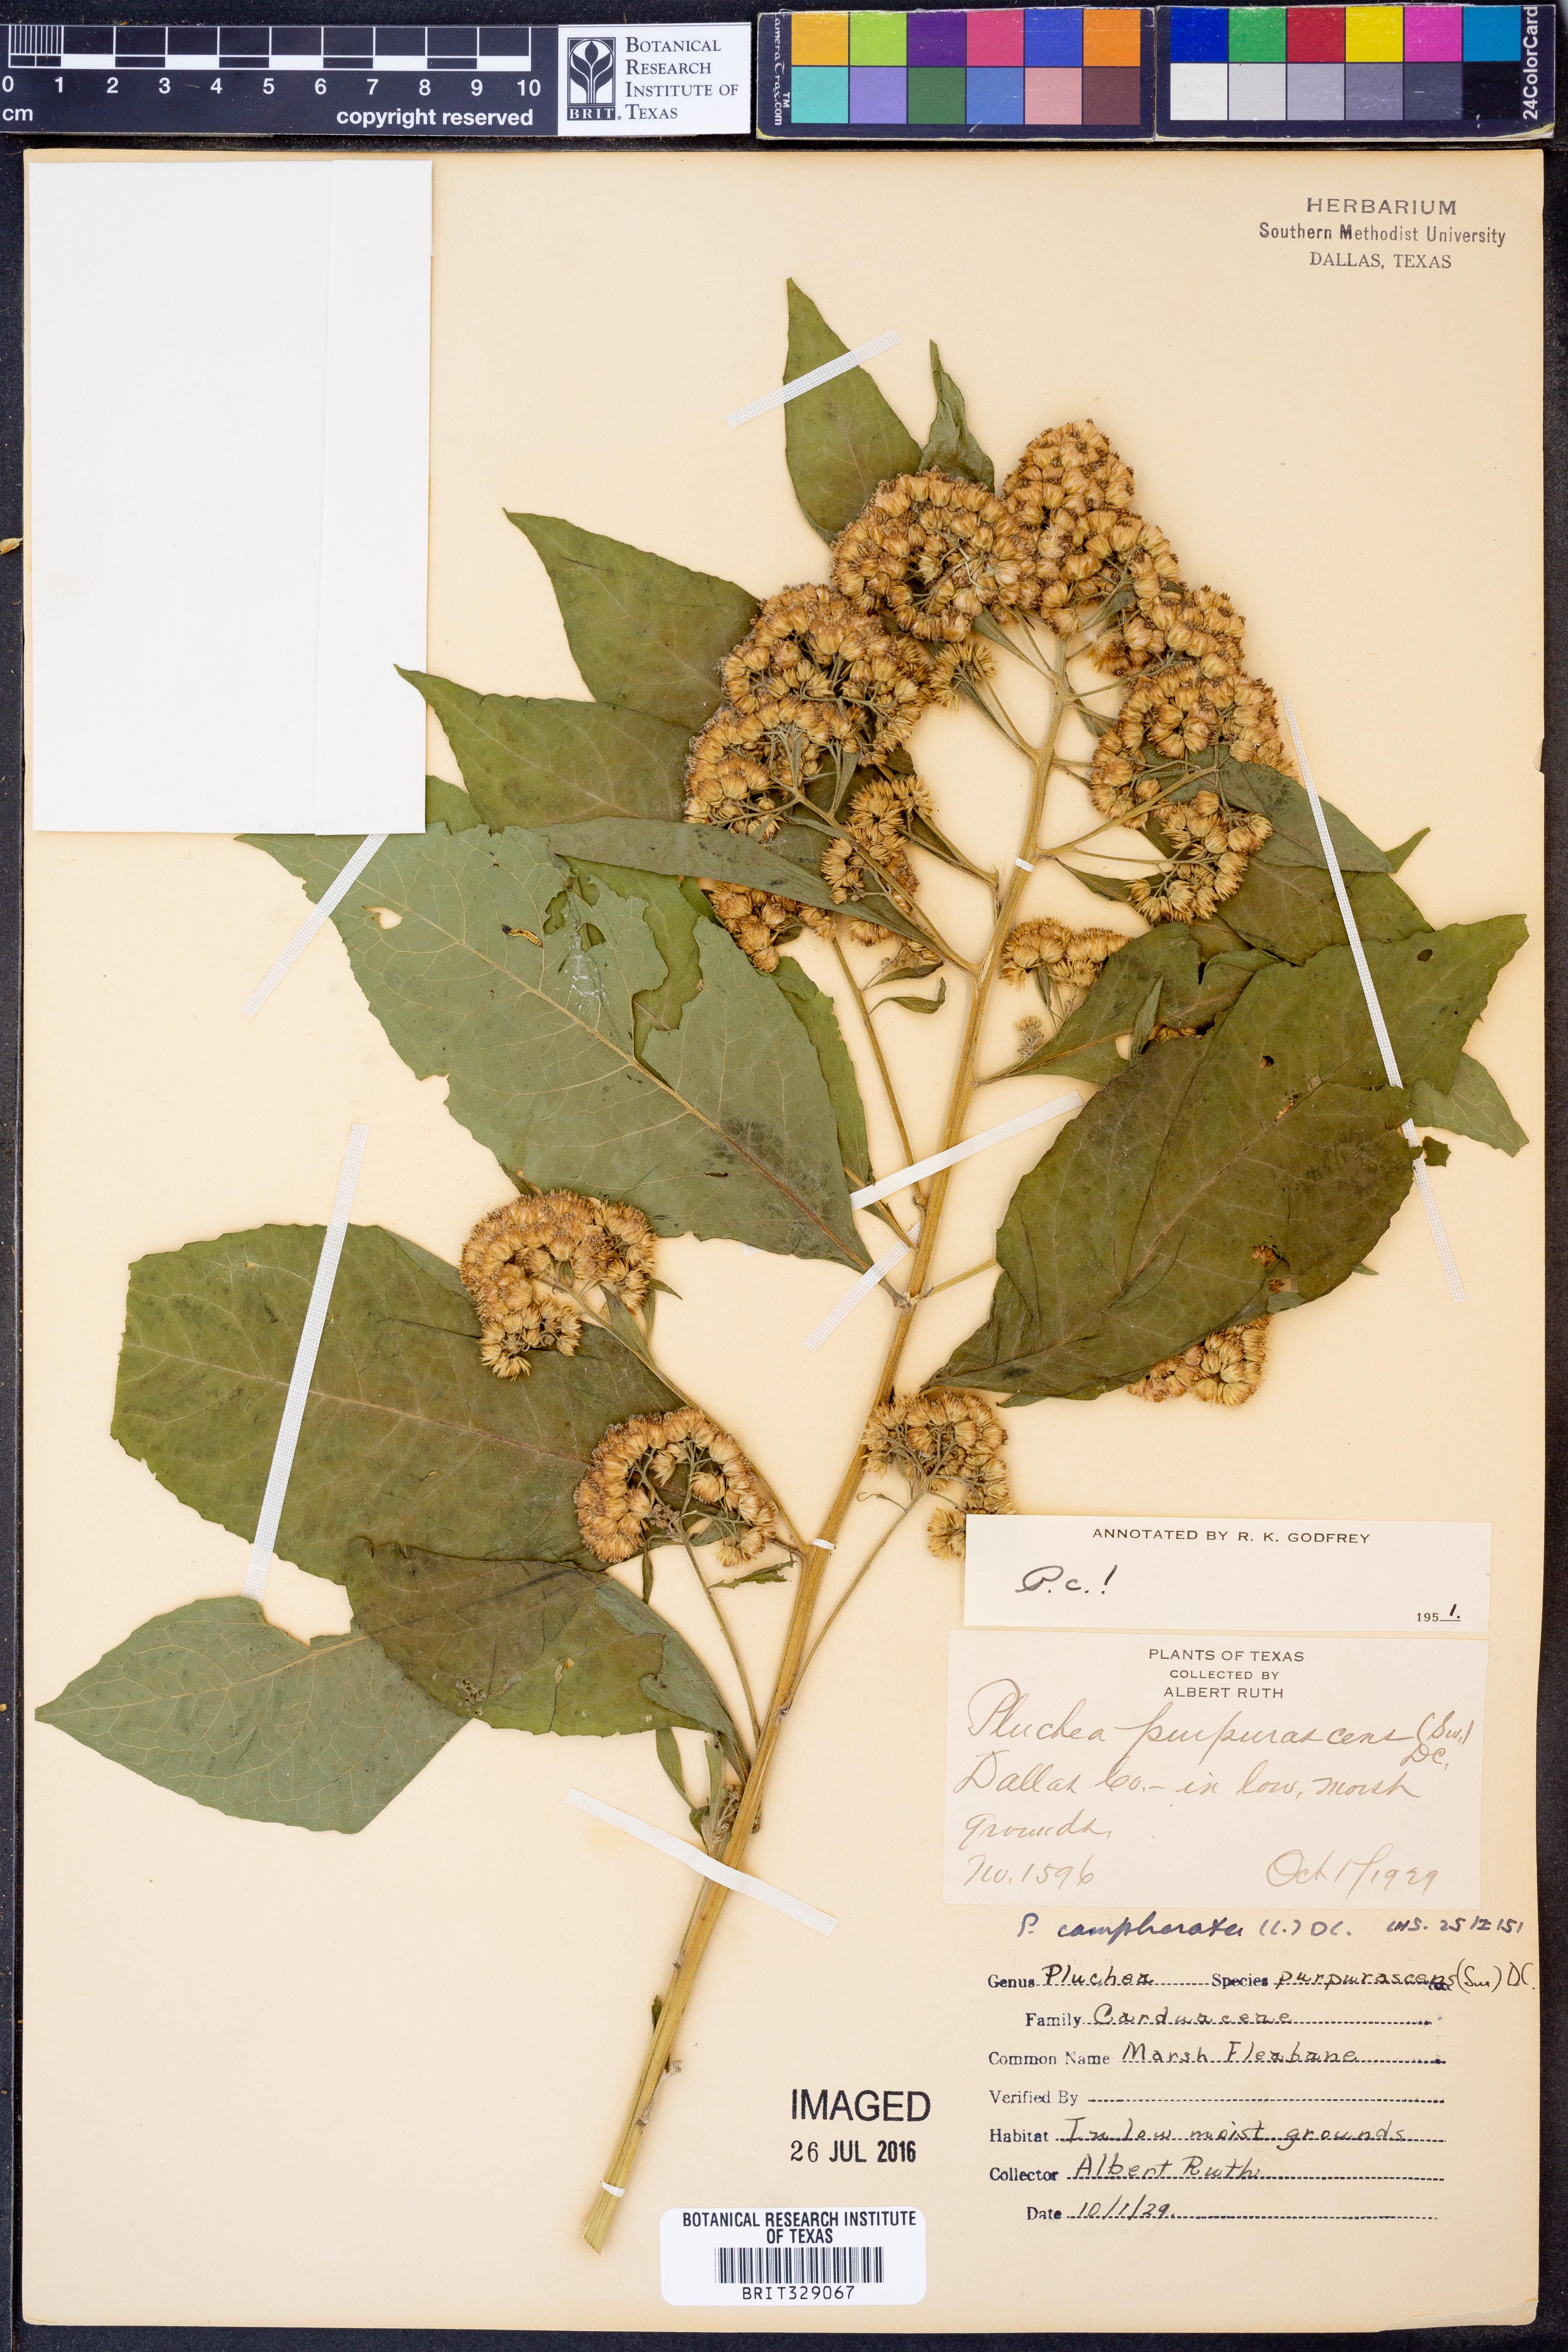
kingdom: Plantae
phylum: Tracheophyta
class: Magnoliopsida
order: Asterales
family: Asteraceae
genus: Pluchea
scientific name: Pluchea camphorata
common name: Camphor pluchea
